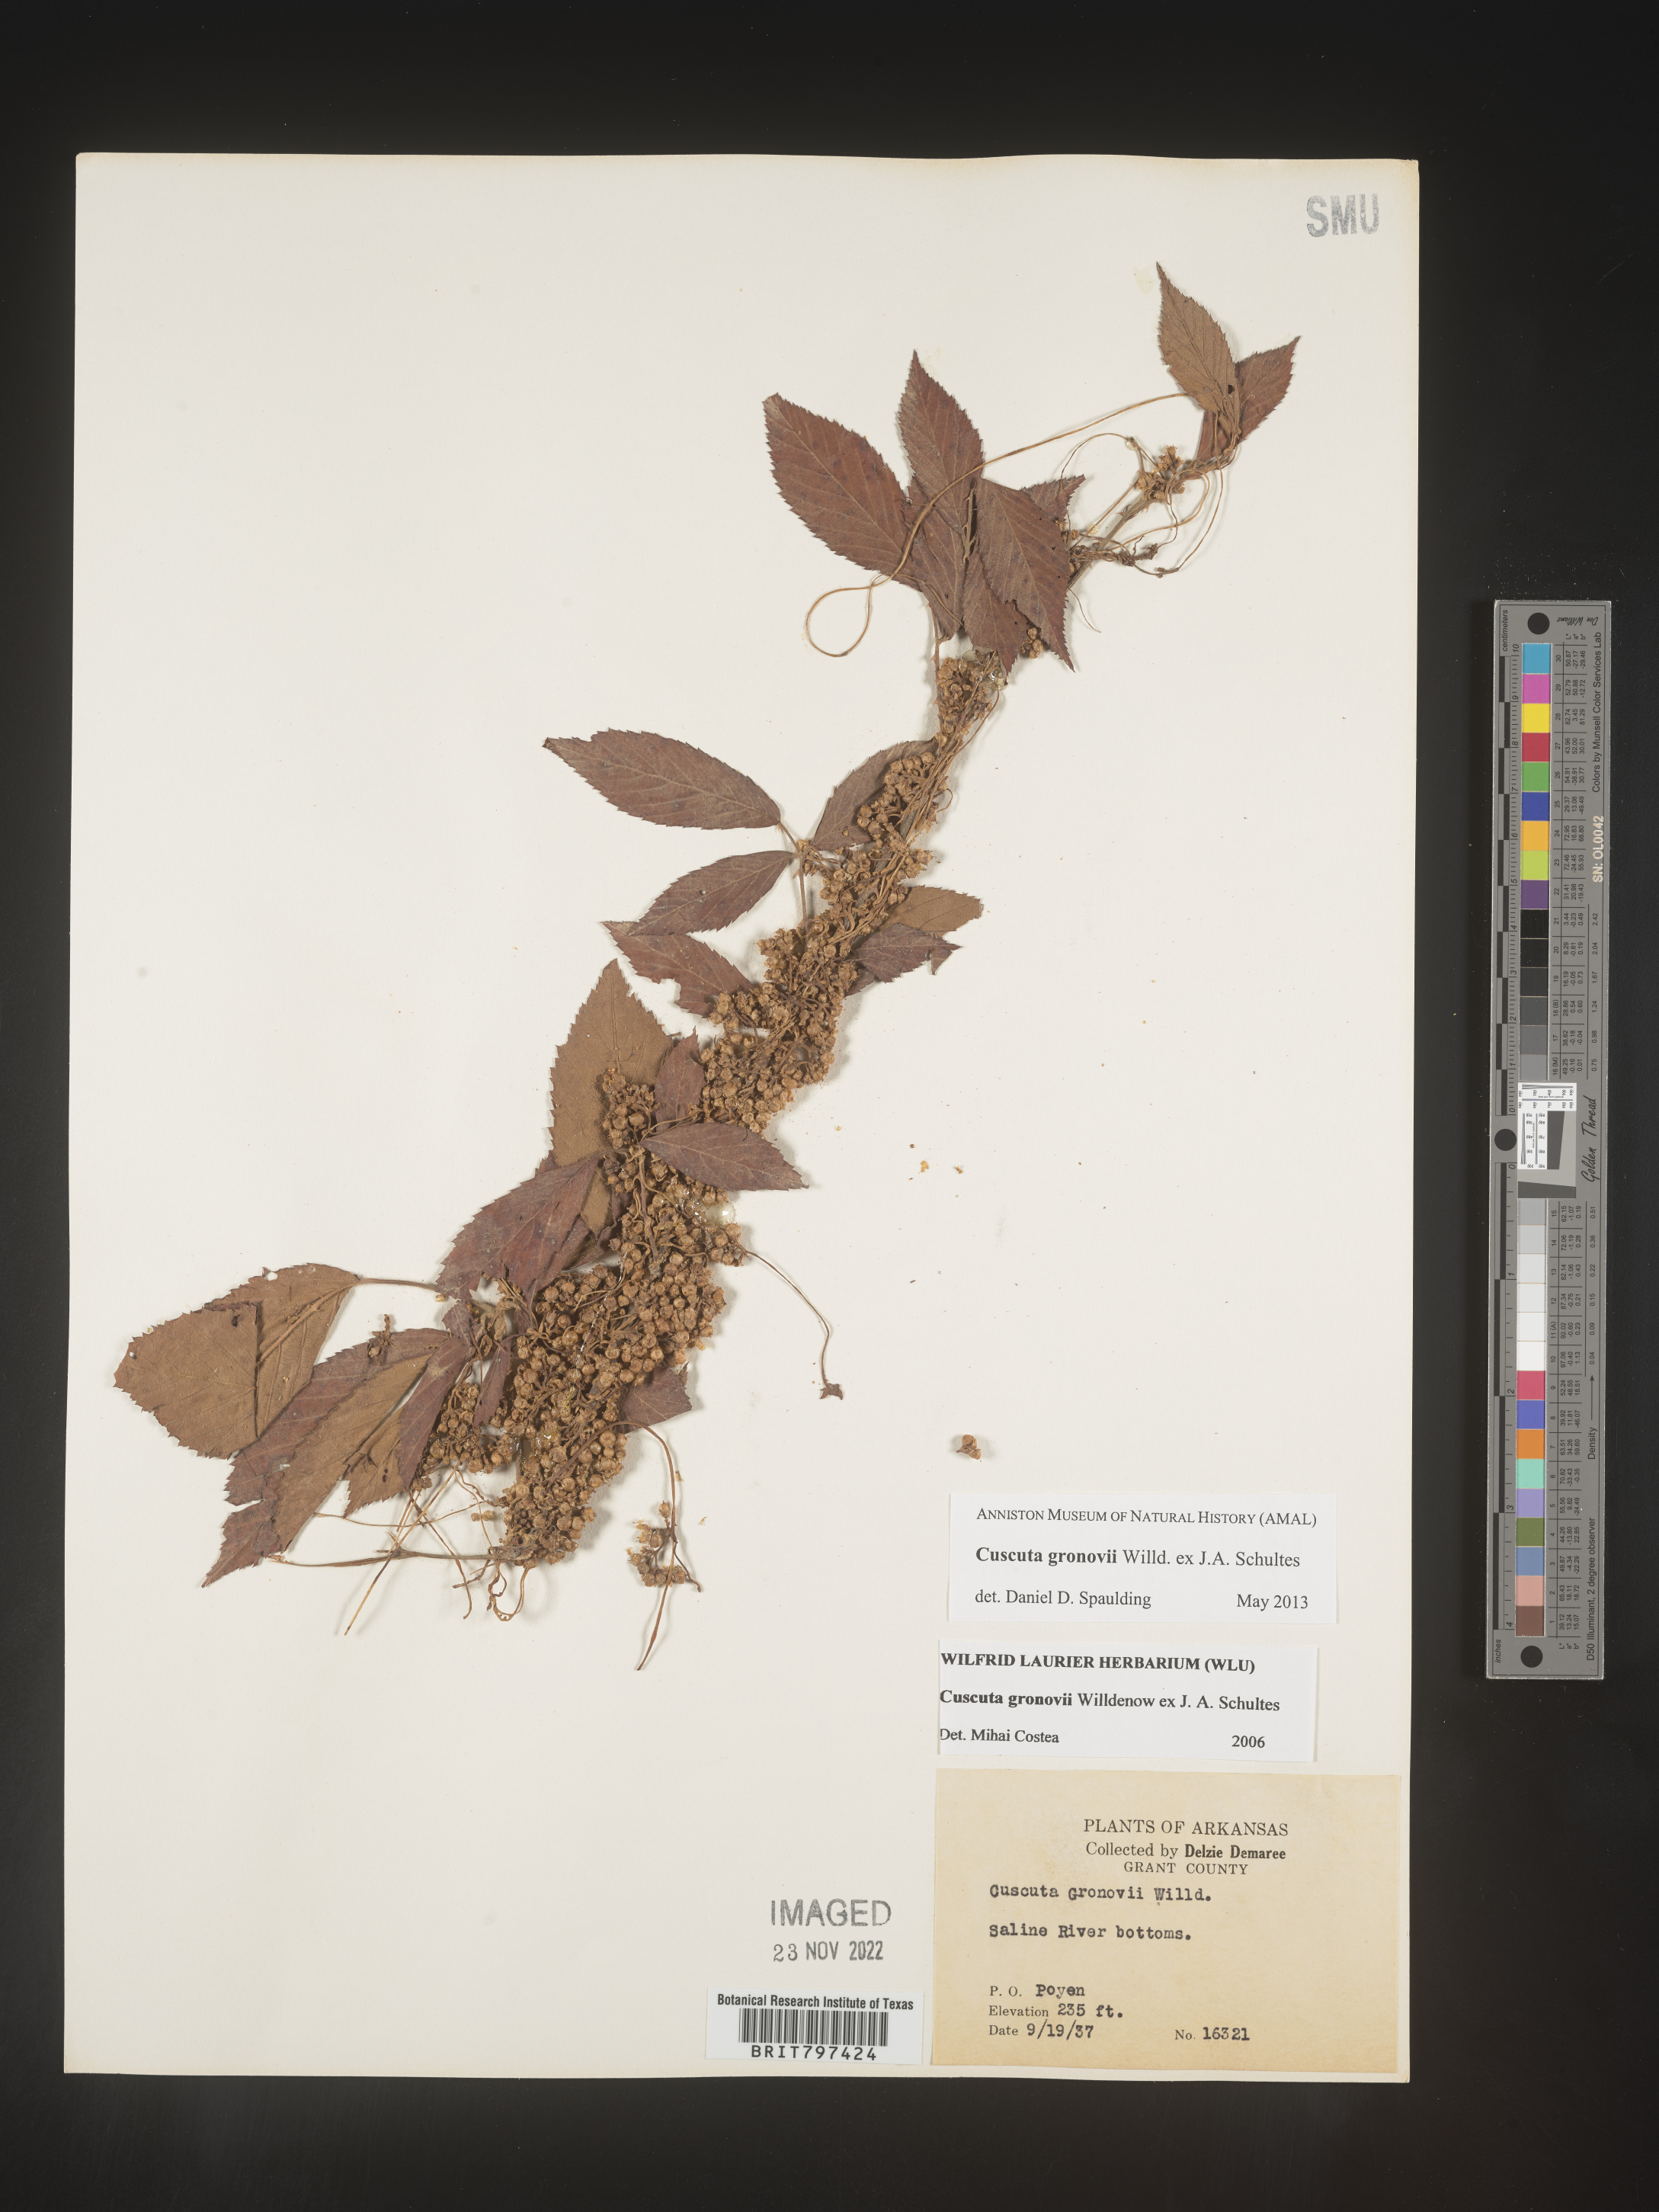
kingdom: Plantae
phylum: Tracheophyta
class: Magnoliopsida
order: Solanales
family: Convolvulaceae
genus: Cuscuta
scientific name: Cuscuta gronovii
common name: Common dodder
